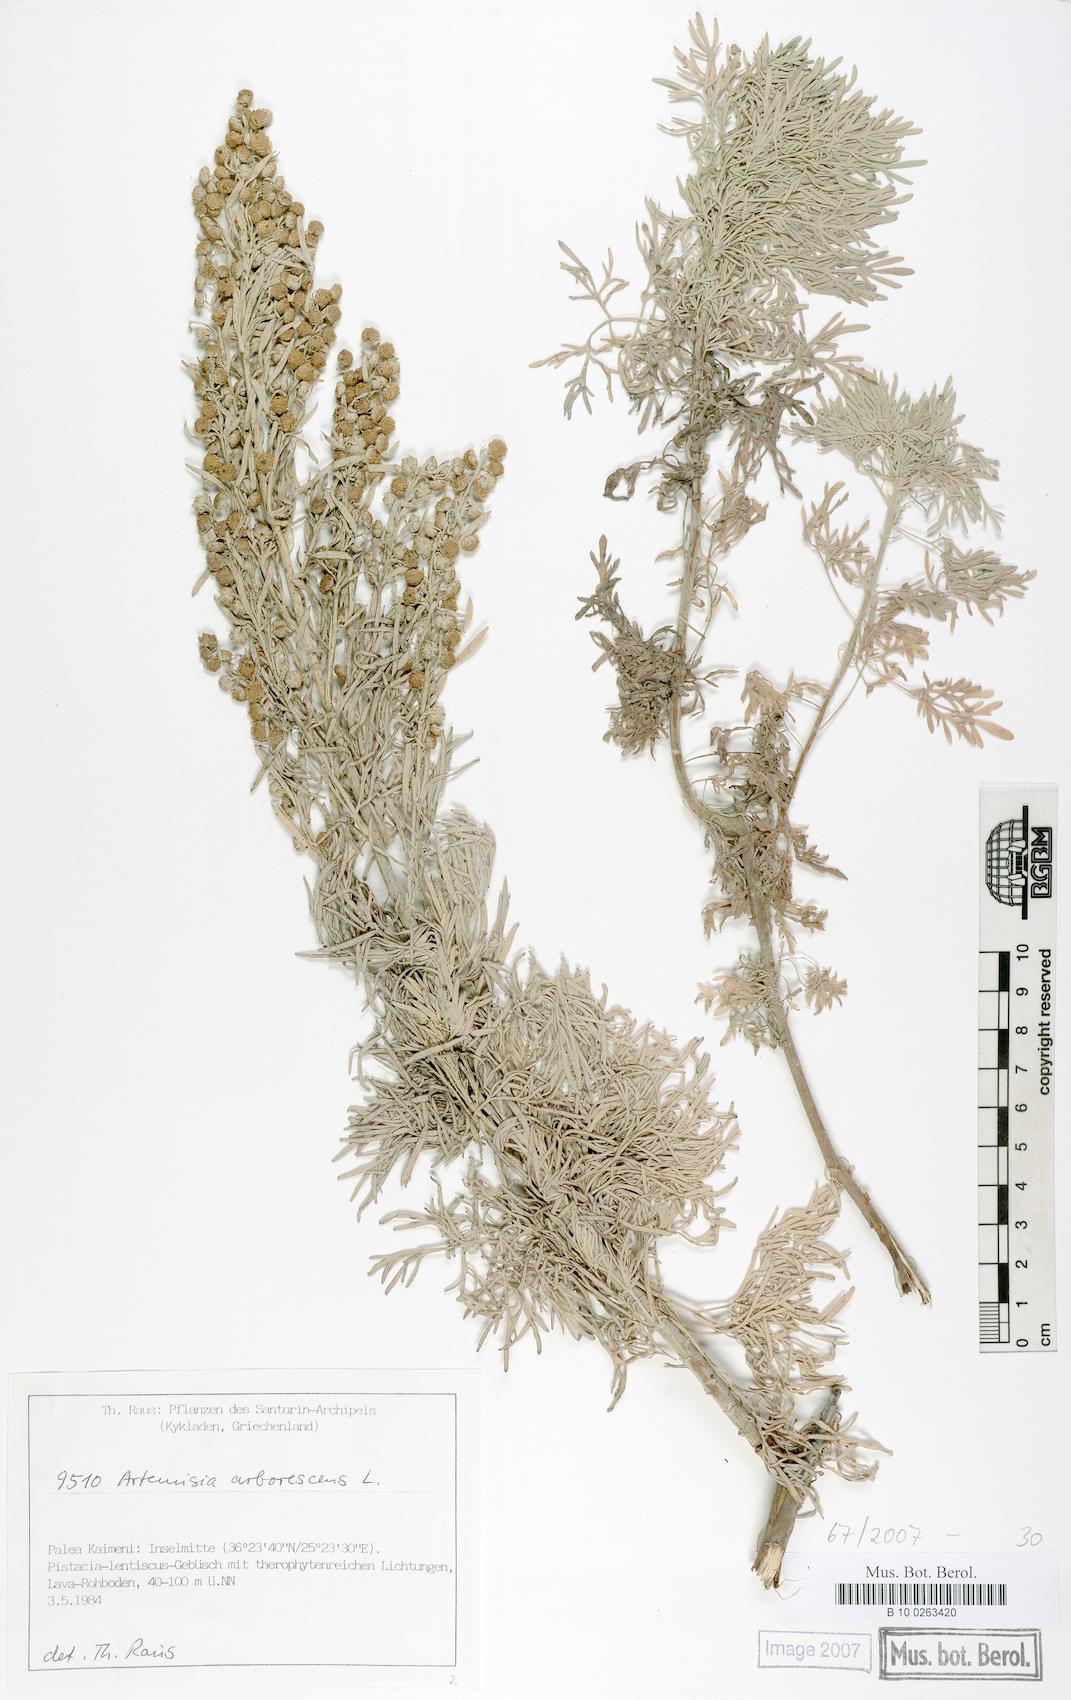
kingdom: Plantae
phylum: Tracheophyta
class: Magnoliopsida
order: Asterales
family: Asteraceae
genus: Artemisia
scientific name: Artemisia arborescens
